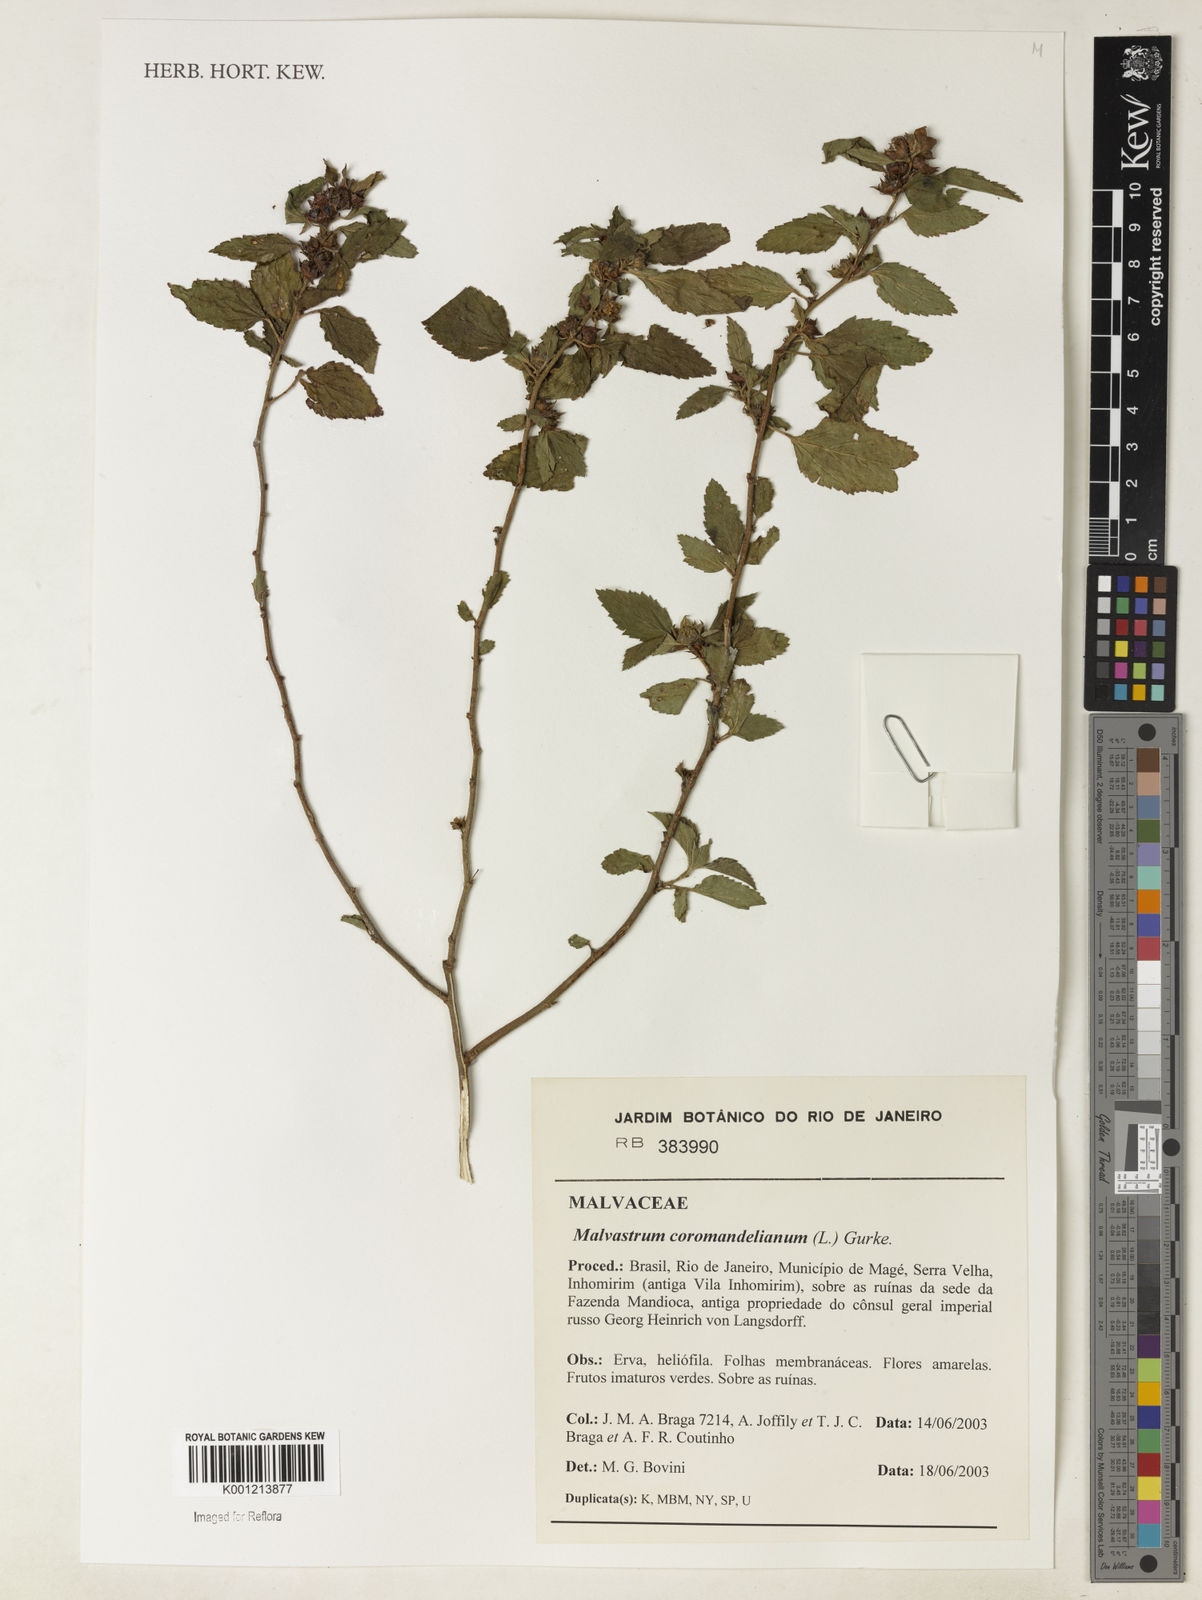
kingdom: Plantae
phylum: Tracheophyta
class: Magnoliopsida
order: Malvales
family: Malvaceae
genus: Malvastrum
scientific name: Malvastrum coromandelianum
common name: Threelobe false mallow
